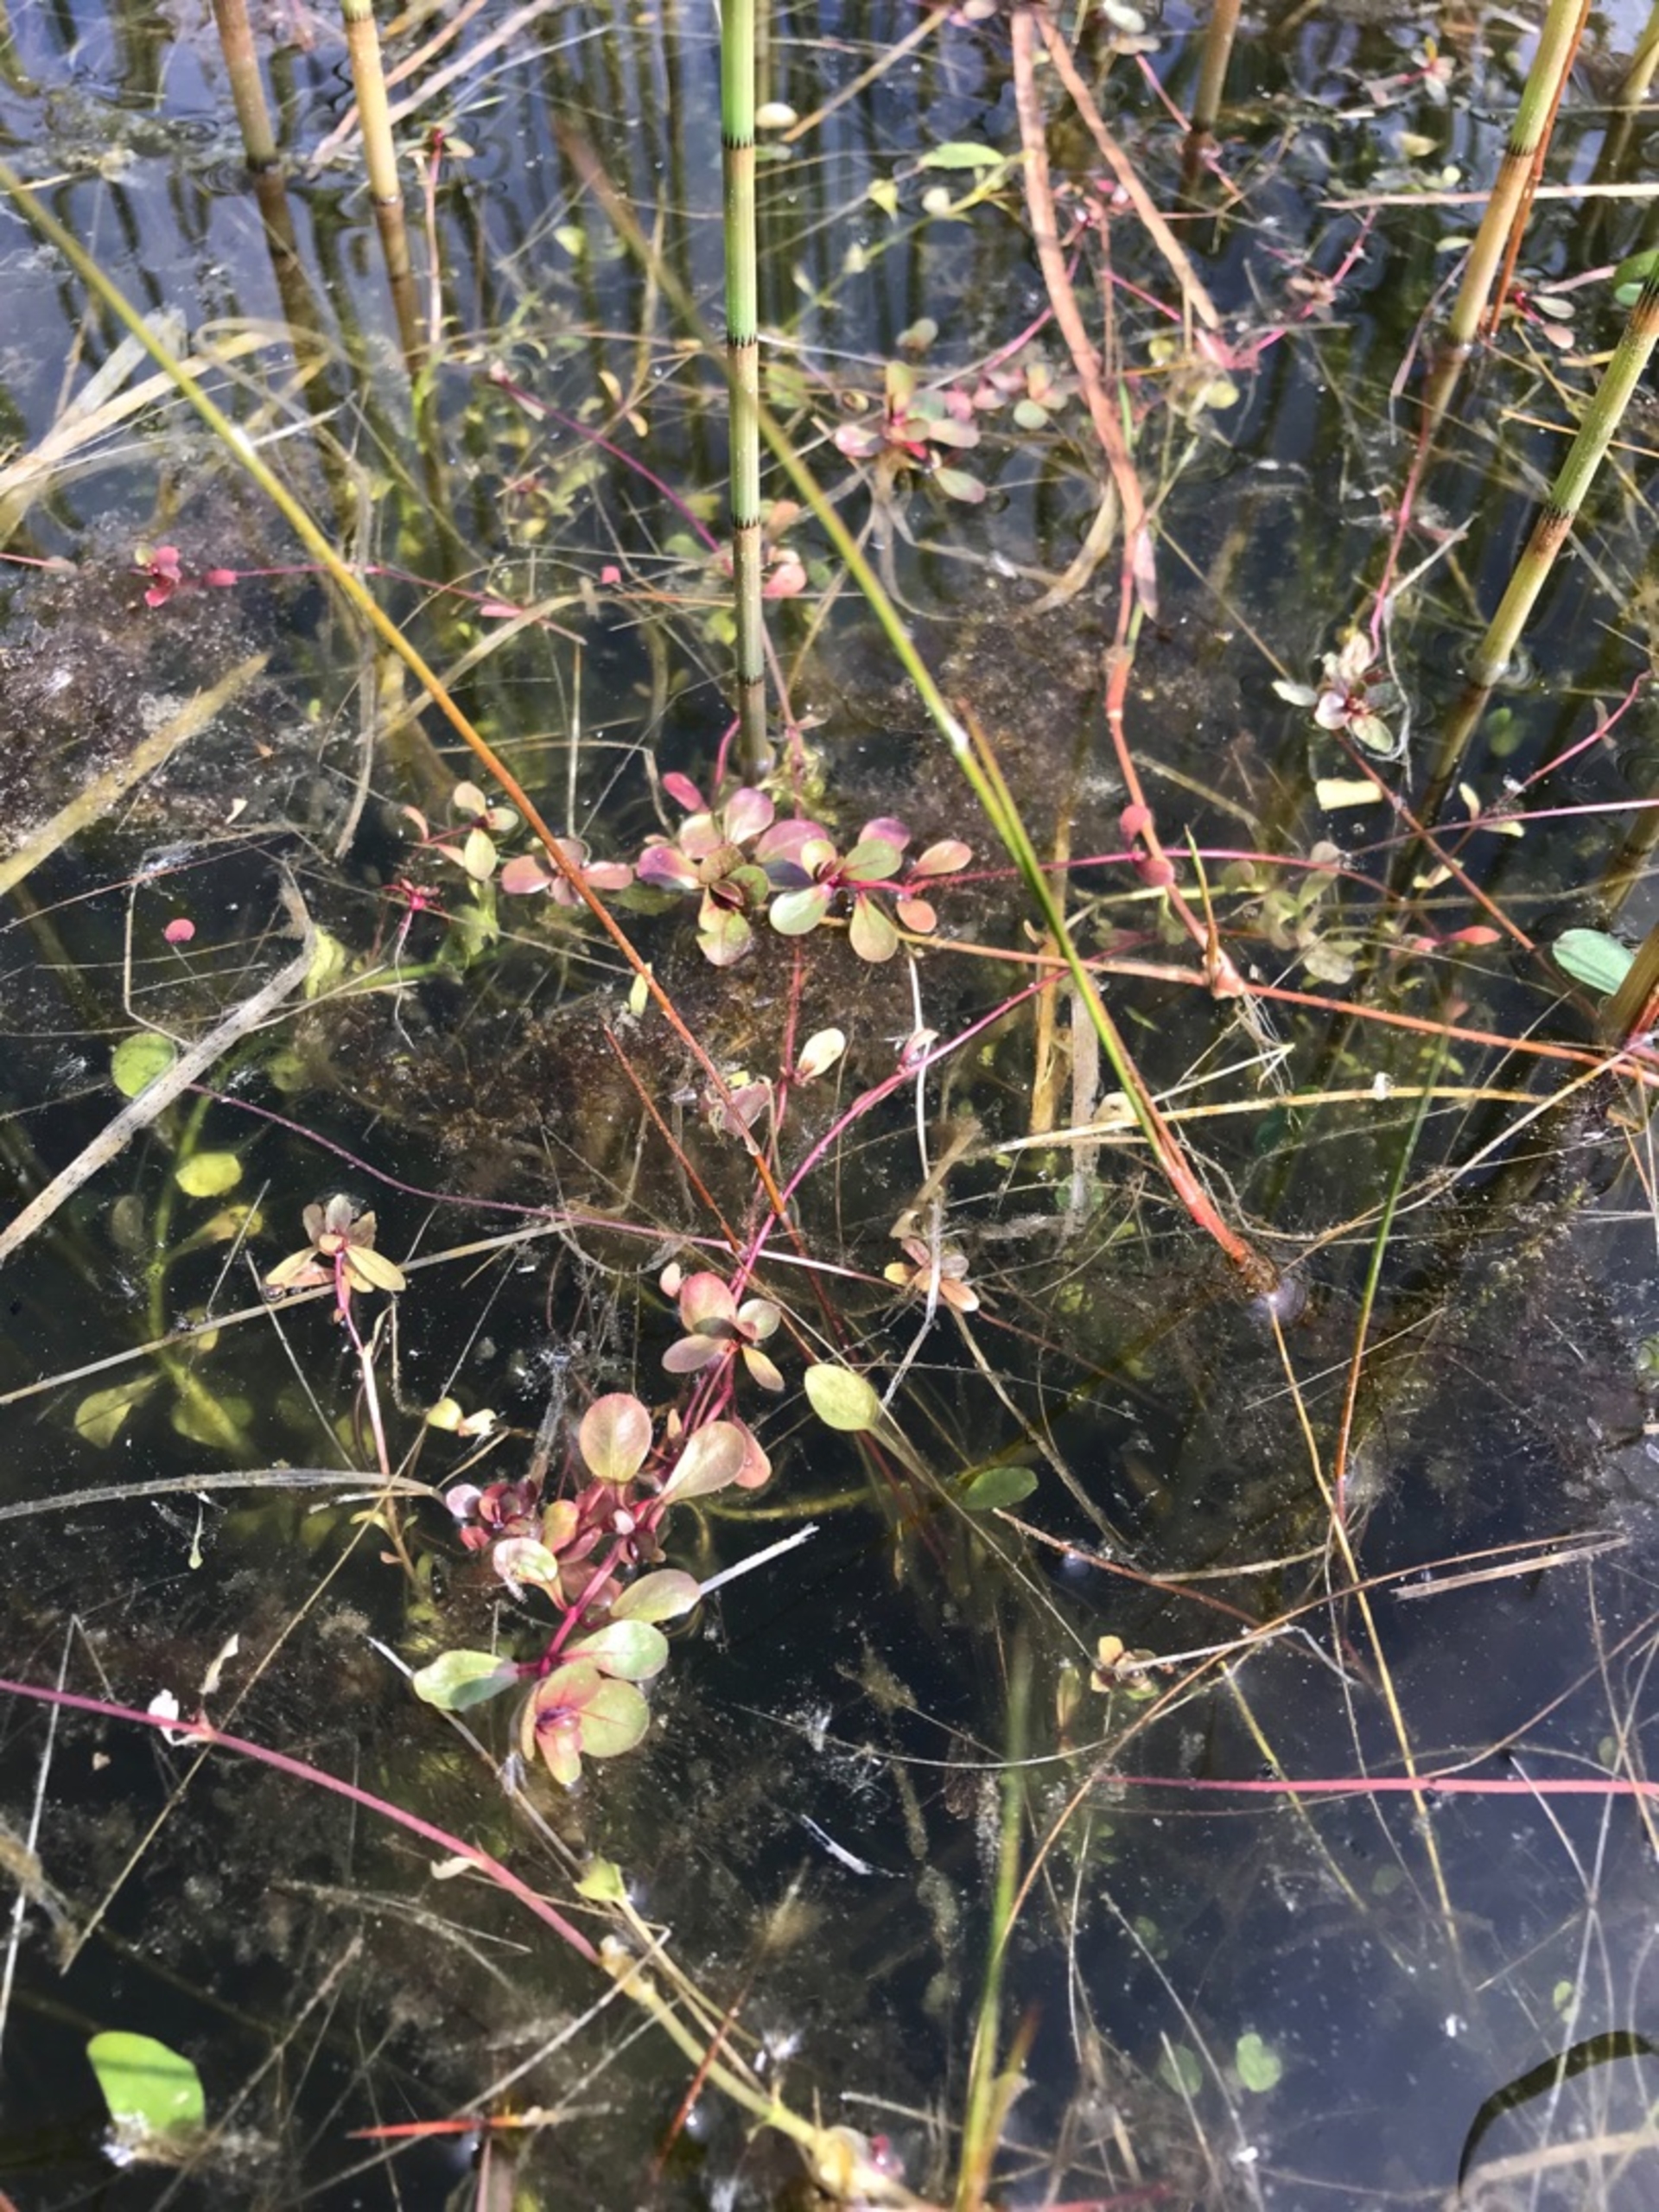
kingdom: Plantae
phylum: Tracheophyta
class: Magnoliopsida
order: Myrtales
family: Lythraceae
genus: Lythrum
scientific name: Lythrum portula
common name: Vandportulak
